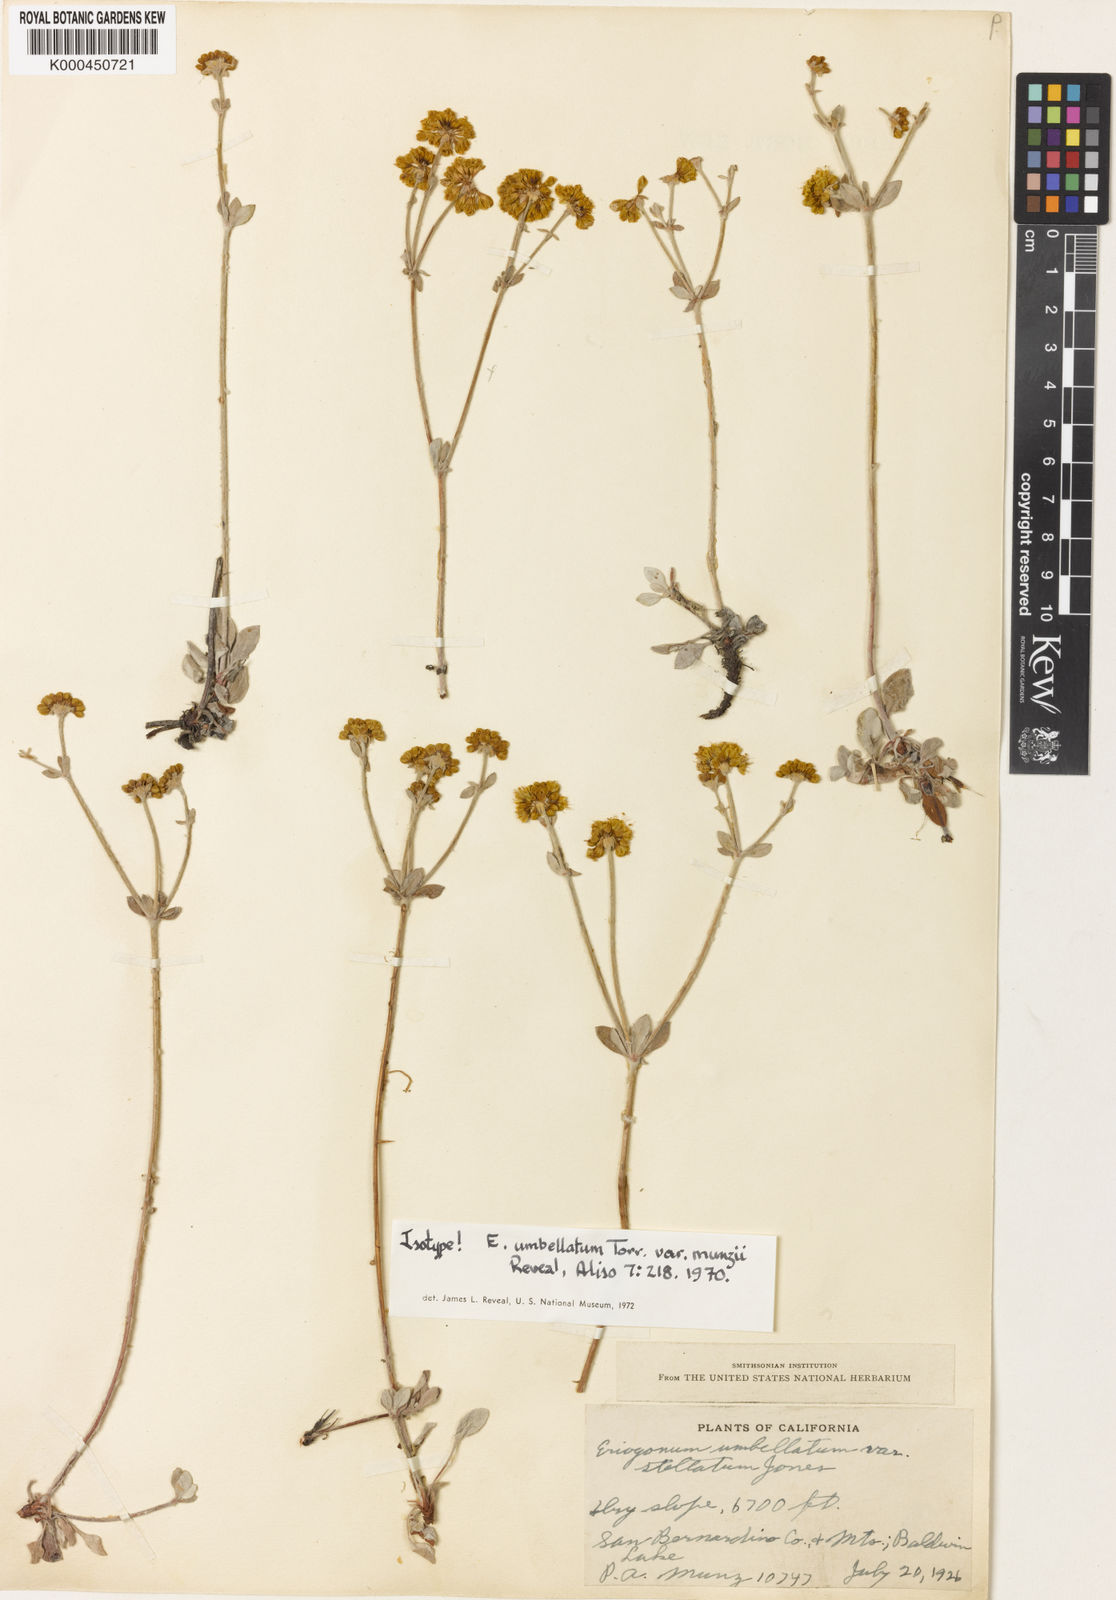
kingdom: Plantae
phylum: Tracheophyta
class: Magnoliopsida
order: Caryophyllales
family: Polygonaceae
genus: Eriogonum
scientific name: Eriogonum umbellatum
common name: Sulfur-buckwheat
